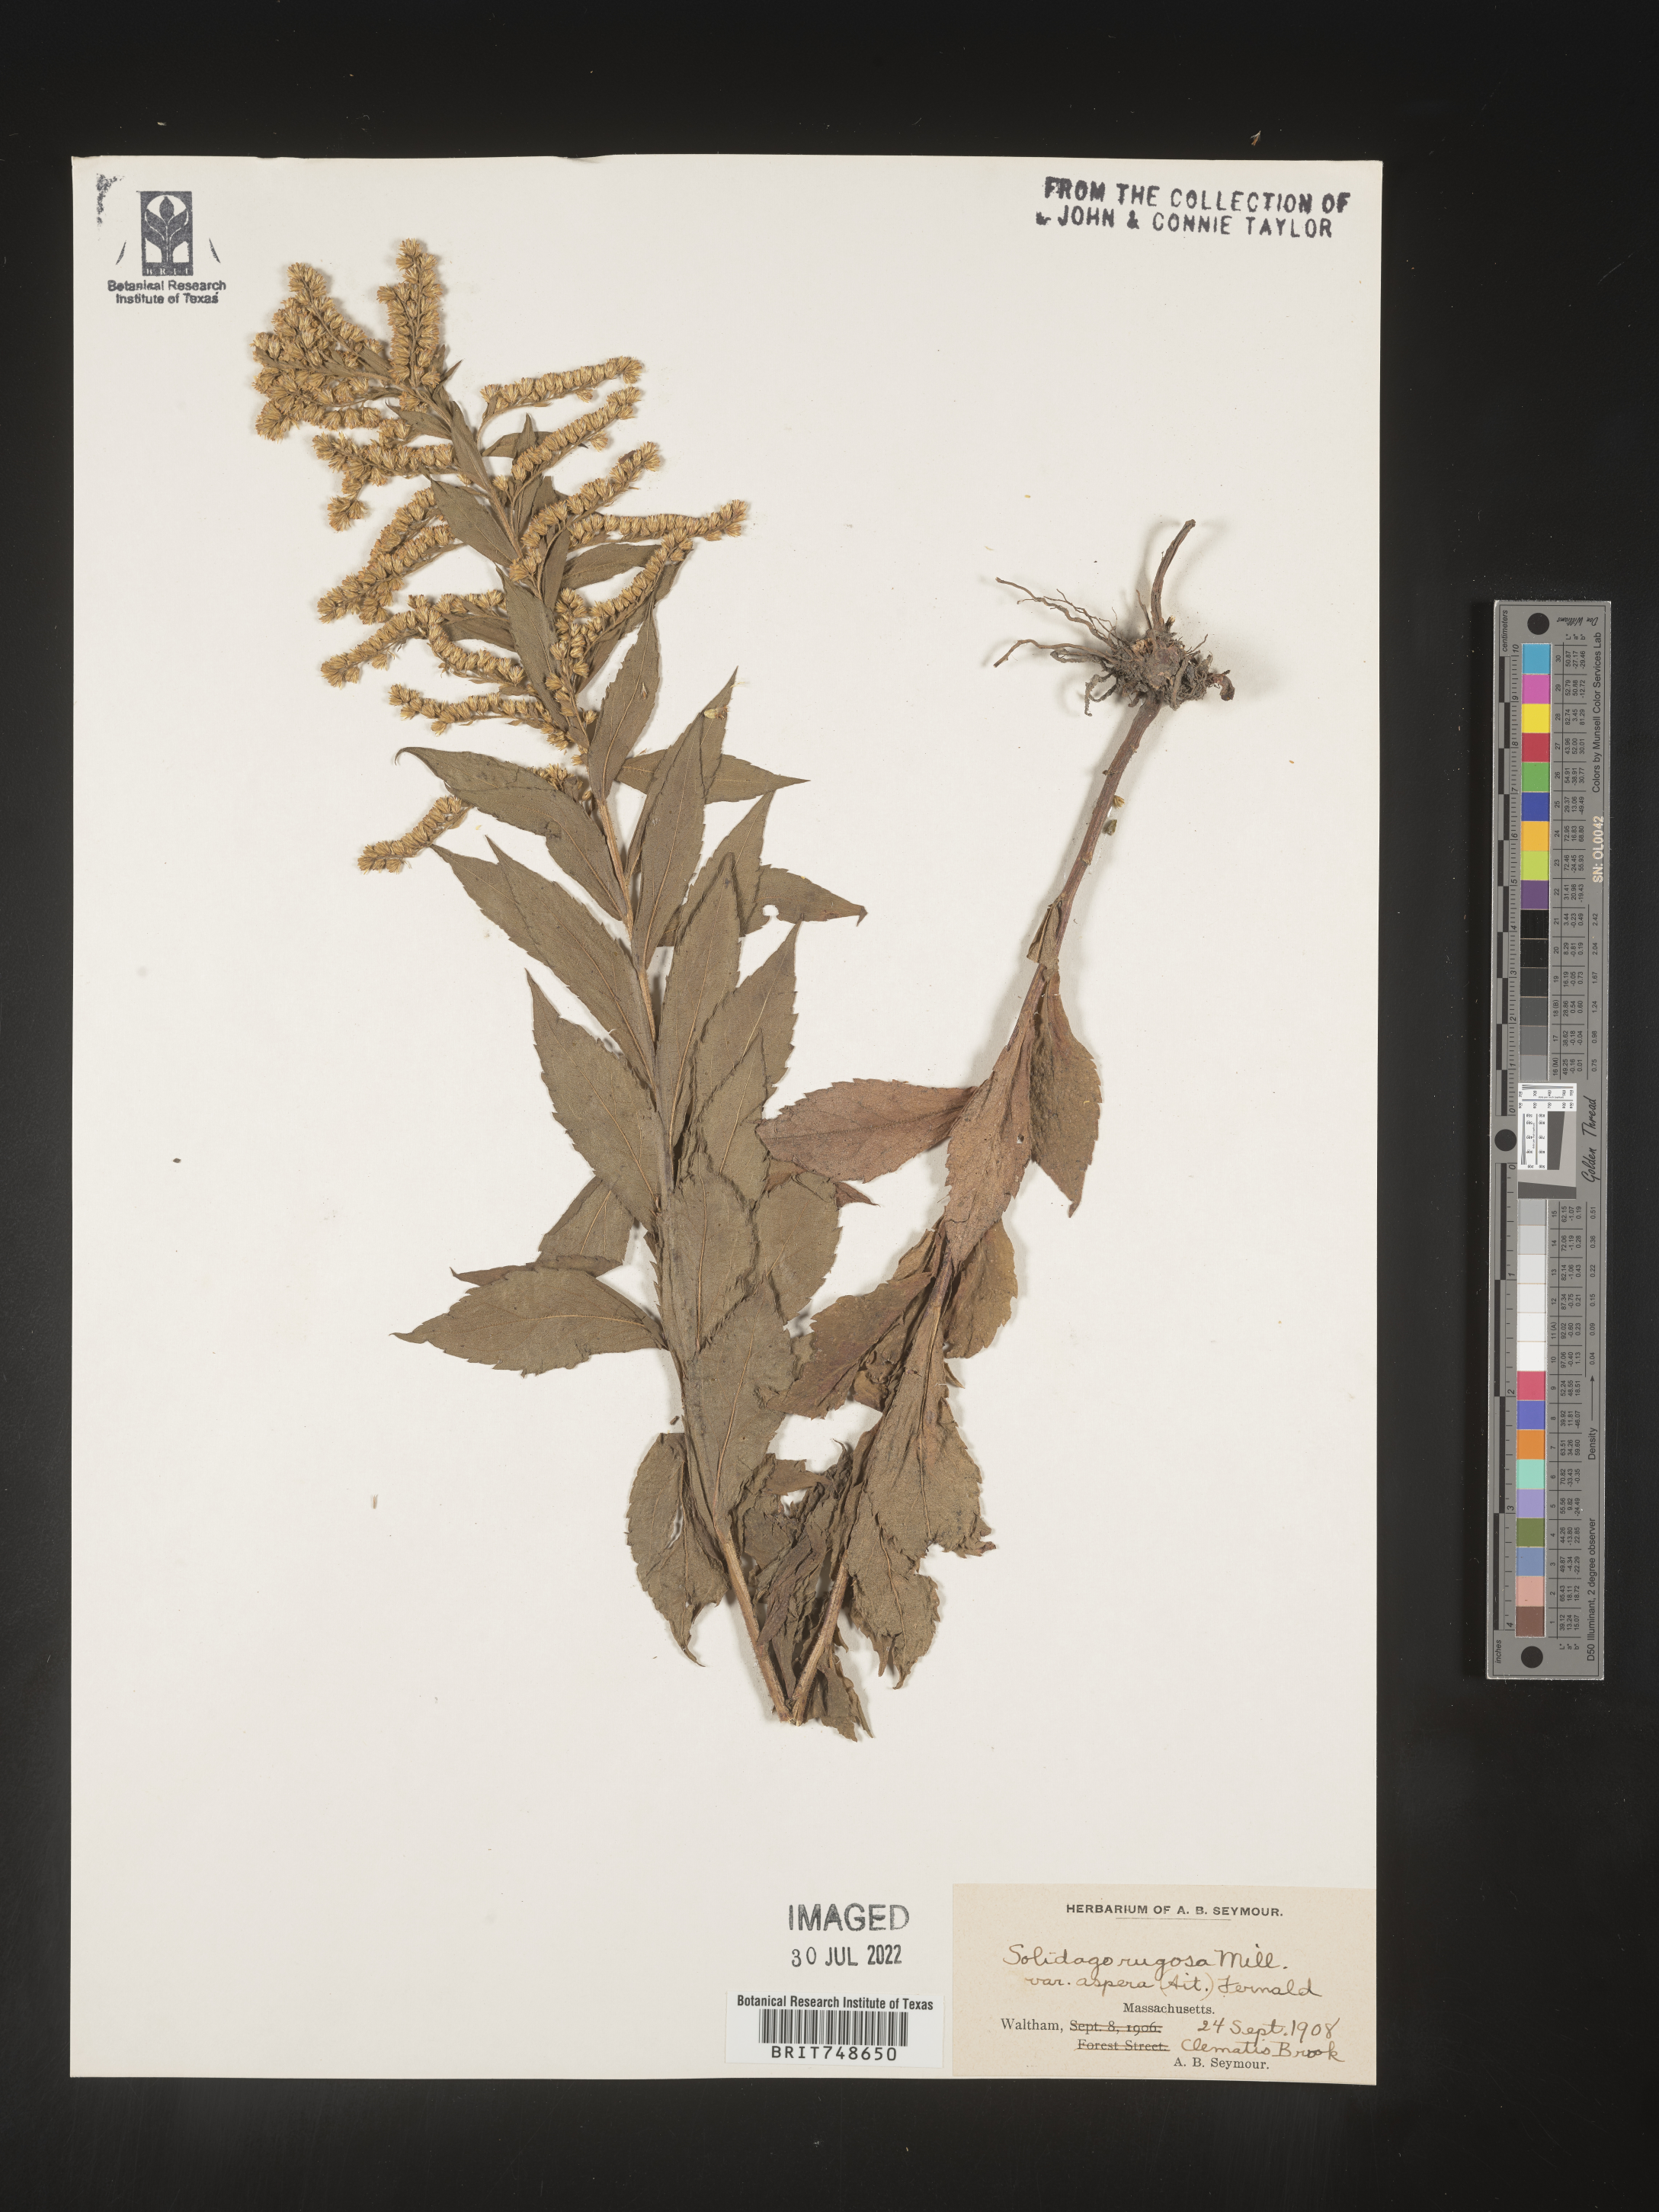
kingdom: Plantae
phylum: Tracheophyta
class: Magnoliopsida
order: Asterales
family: Asteraceae
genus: Solidago
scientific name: Solidago rugosa
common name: Rough-stemmed goldenrod
